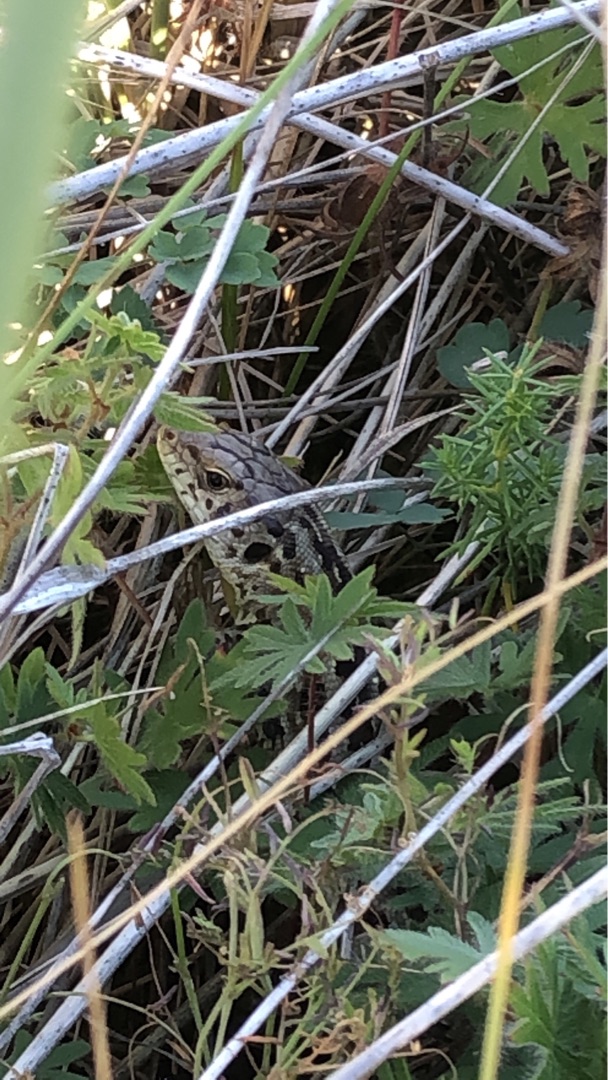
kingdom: Animalia
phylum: Chordata
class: Squamata
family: Lacertidae
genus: Lacerta
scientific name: Lacerta agilis
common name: Markfirben
